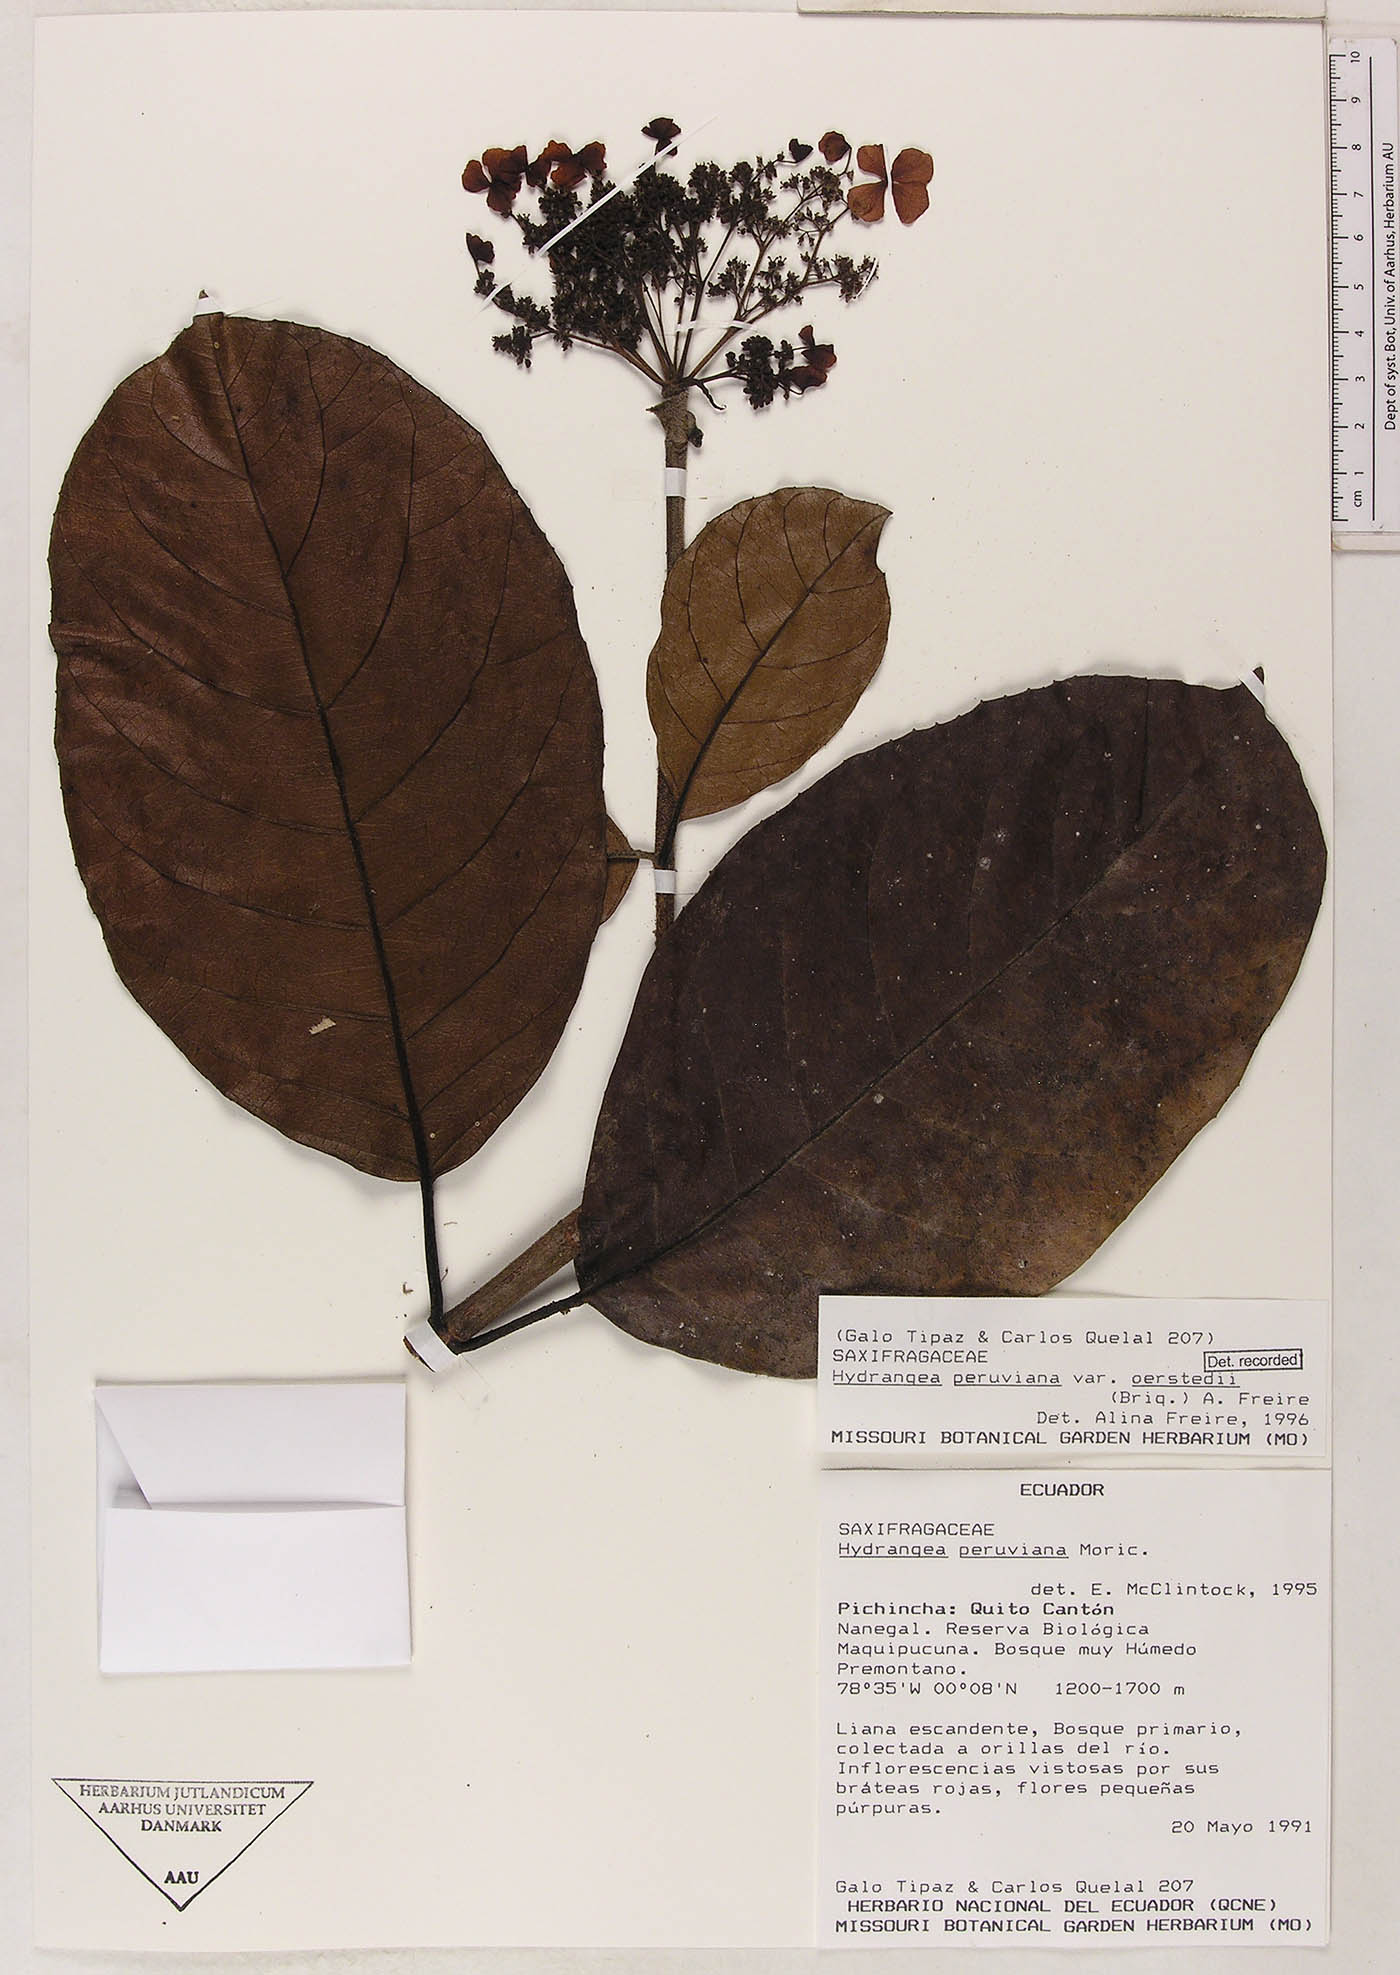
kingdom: Plantae
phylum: Tracheophyta
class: Magnoliopsida
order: Cornales
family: Hydrangeaceae
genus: Hydrangea
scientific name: Hydrangea oerstedii
